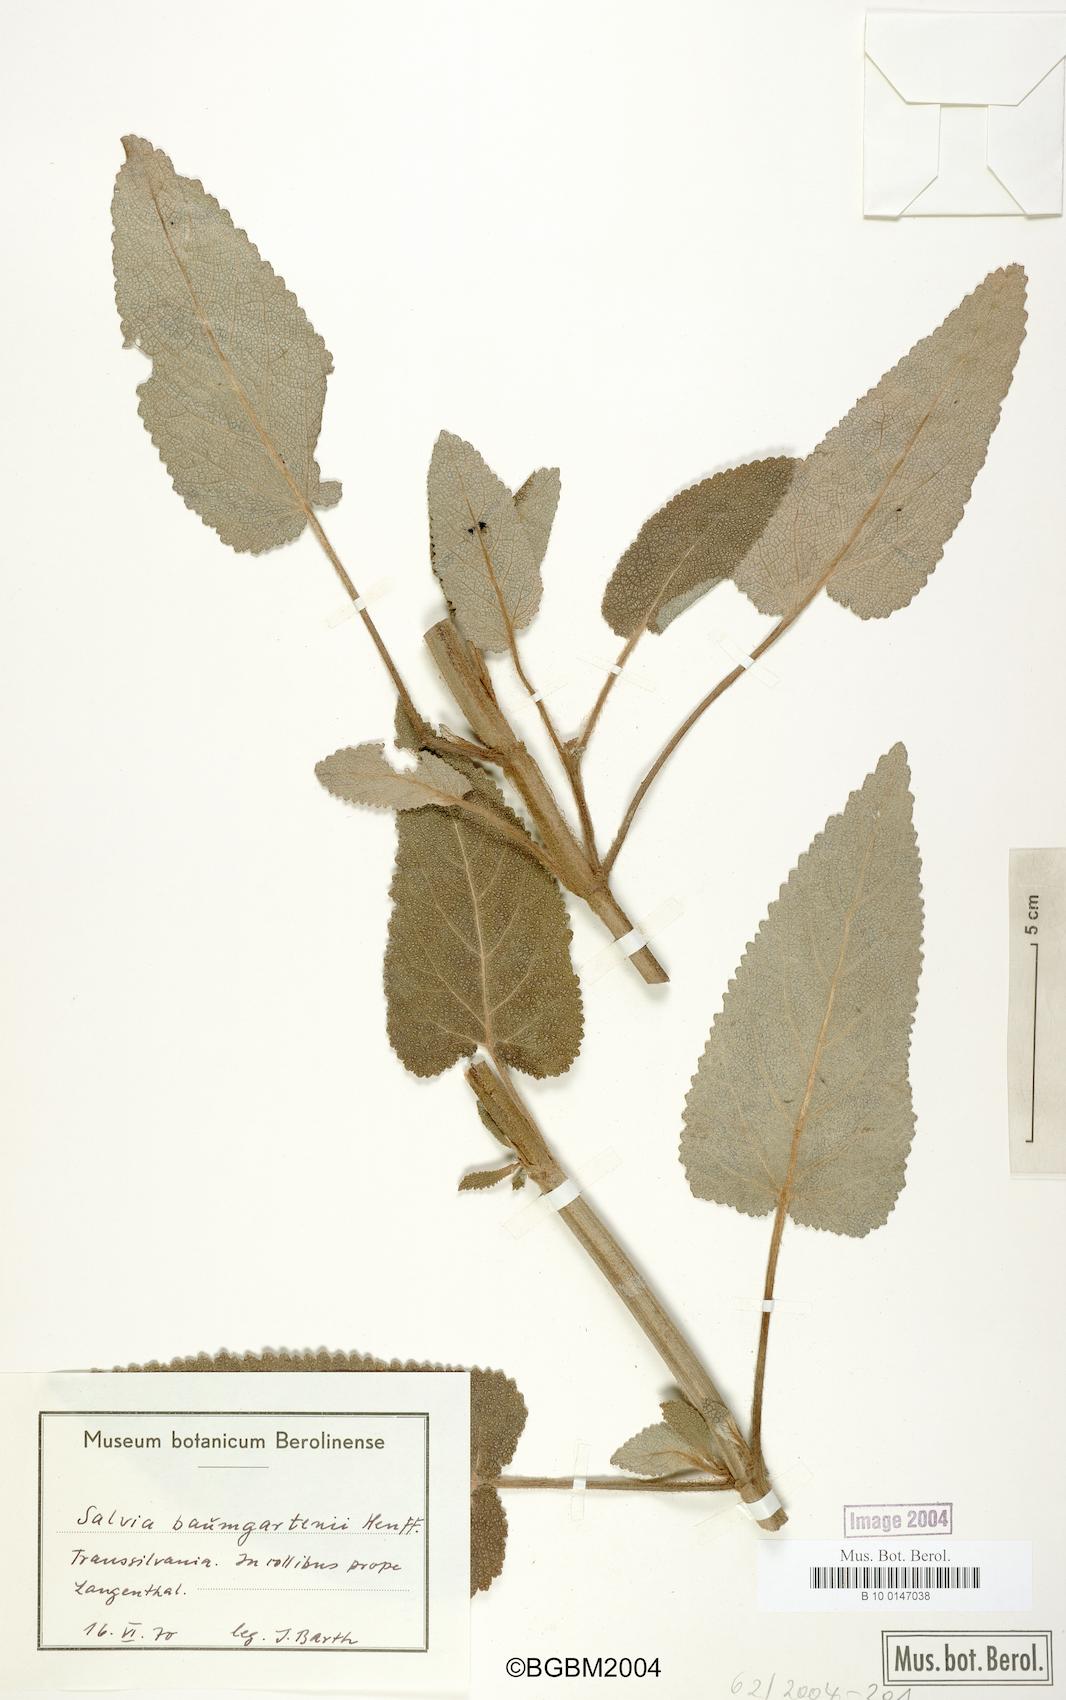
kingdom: Plantae
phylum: Tracheophyta
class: Magnoliopsida
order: Lamiales
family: Lamiaceae
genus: Salvia
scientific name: Salvia transsylvanica
